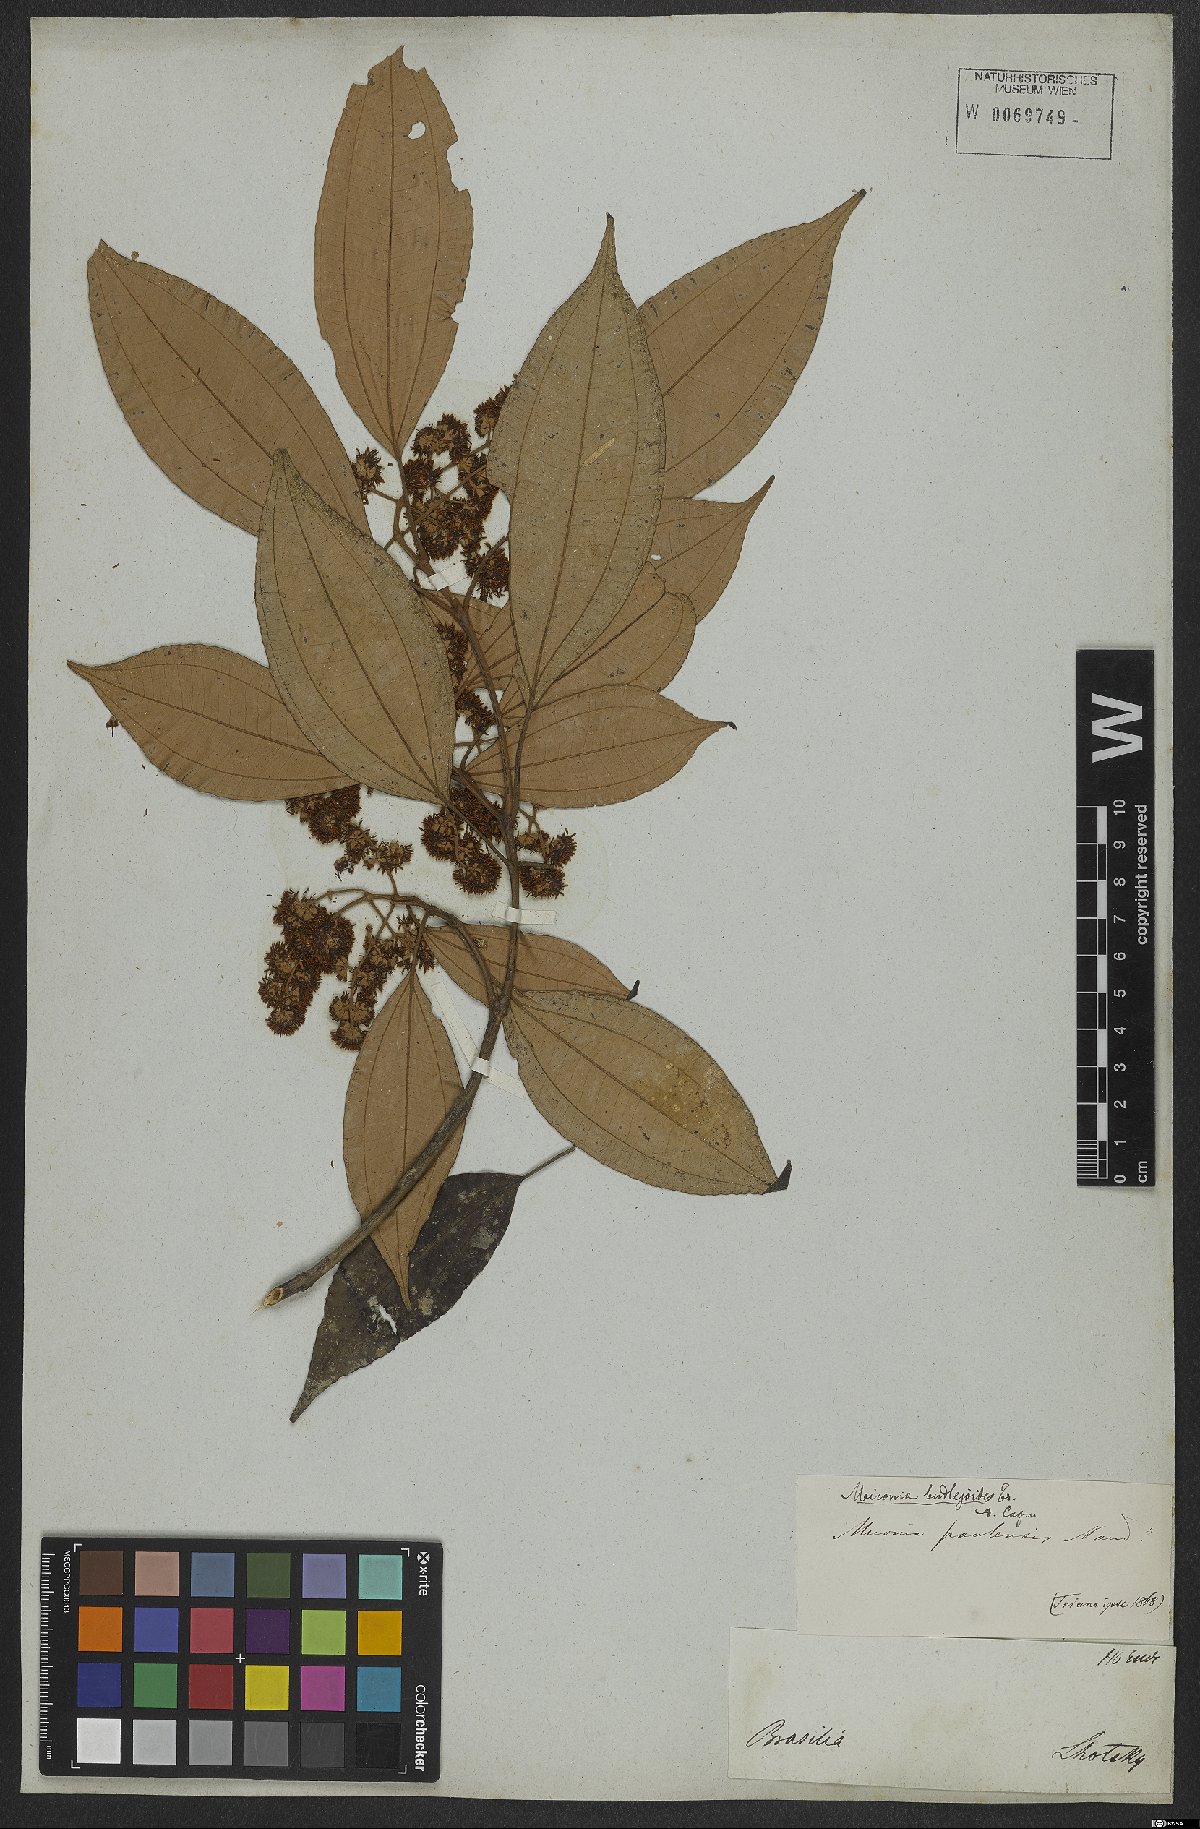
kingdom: Plantae
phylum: Tracheophyta
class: Magnoliopsida
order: Myrtales
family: Melastomataceae
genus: Miconia
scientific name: Miconia buddlejoides
